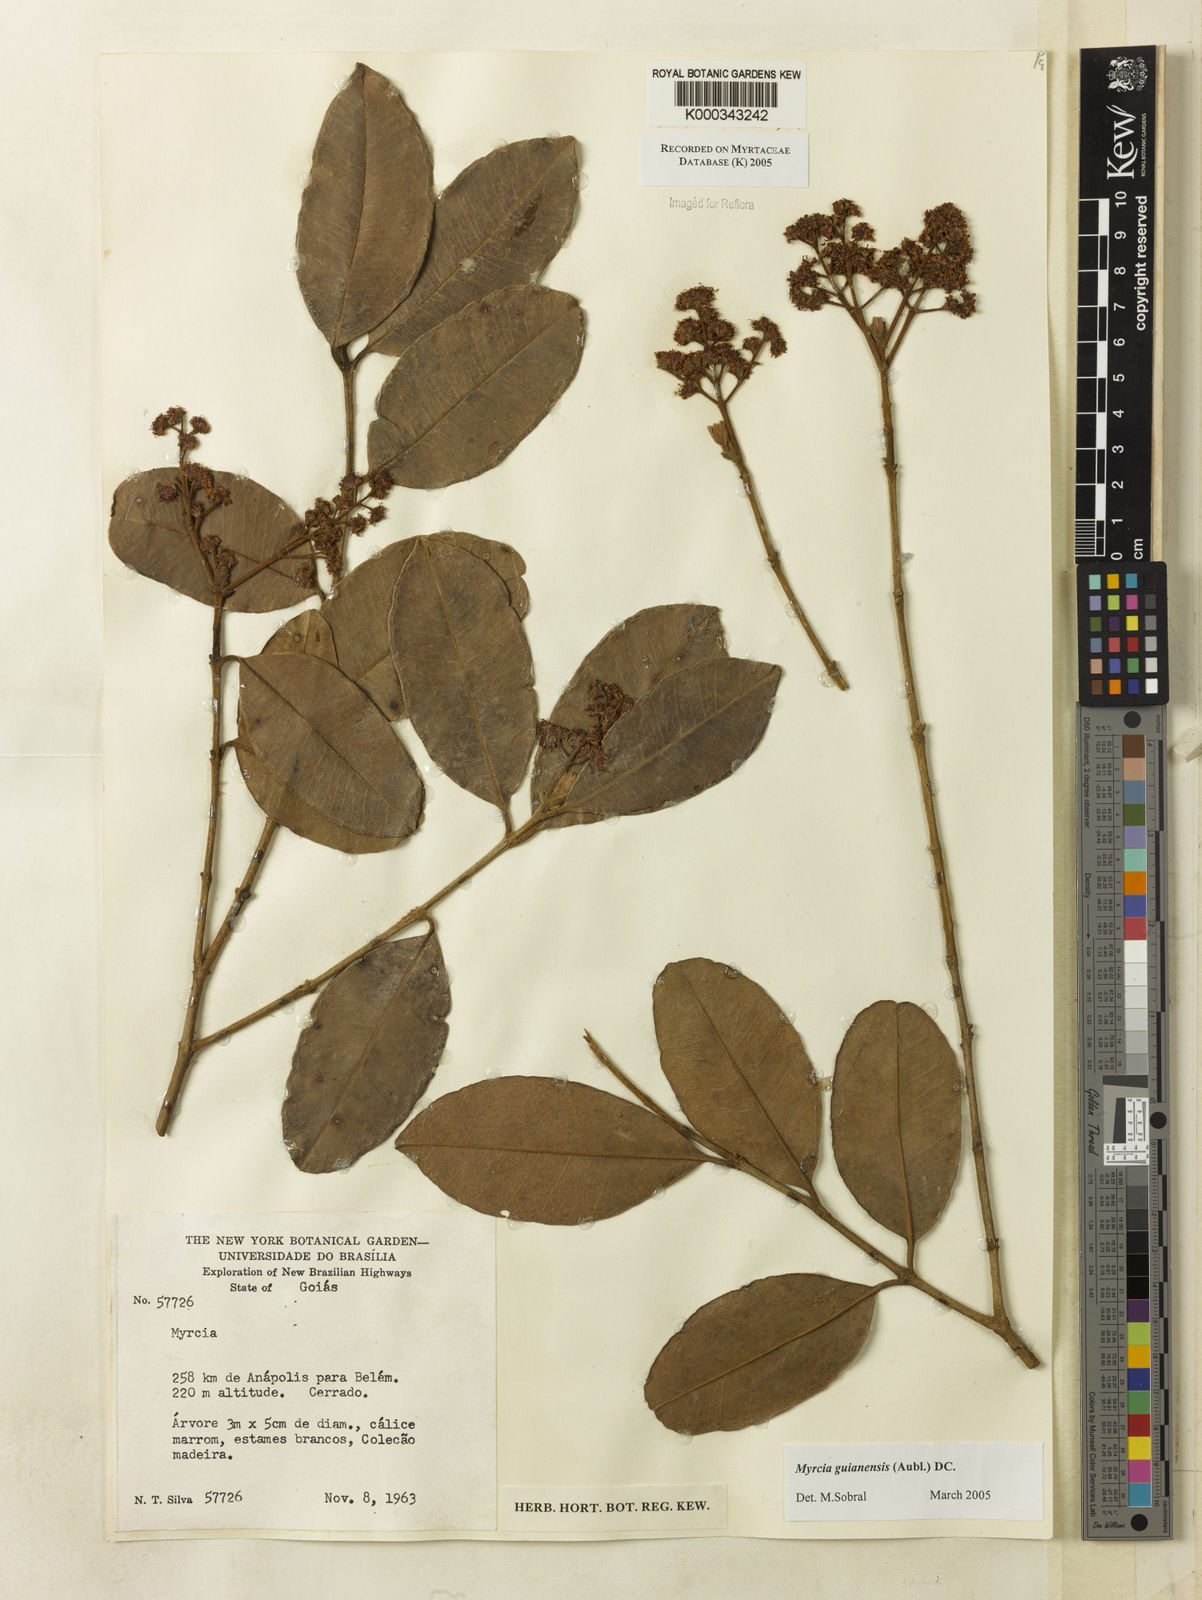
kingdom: Plantae
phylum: Tracheophyta
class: Magnoliopsida
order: Myrtales
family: Myrtaceae
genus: Myrcia
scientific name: Myrcia guianensis
